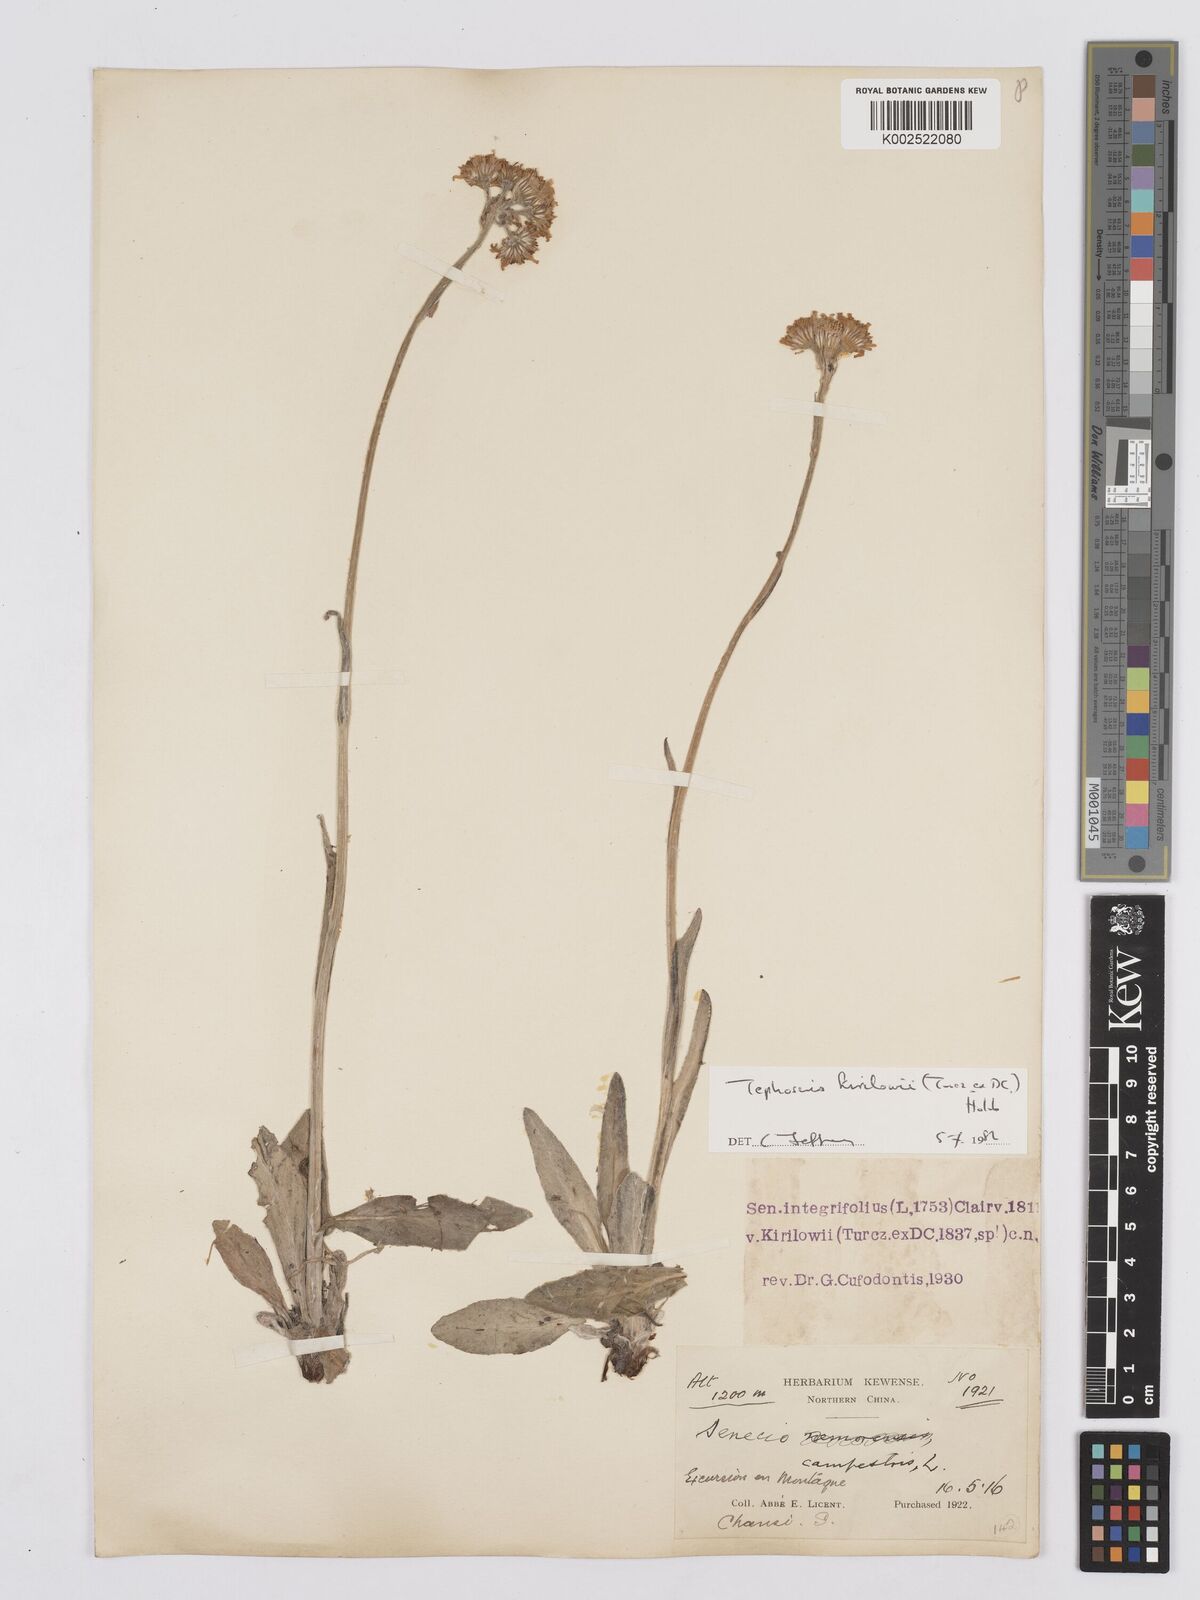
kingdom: Plantae
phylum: Tracheophyta
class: Magnoliopsida
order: Asterales
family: Asteraceae
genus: Tephroseris
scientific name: Tephroseris kirilowii
